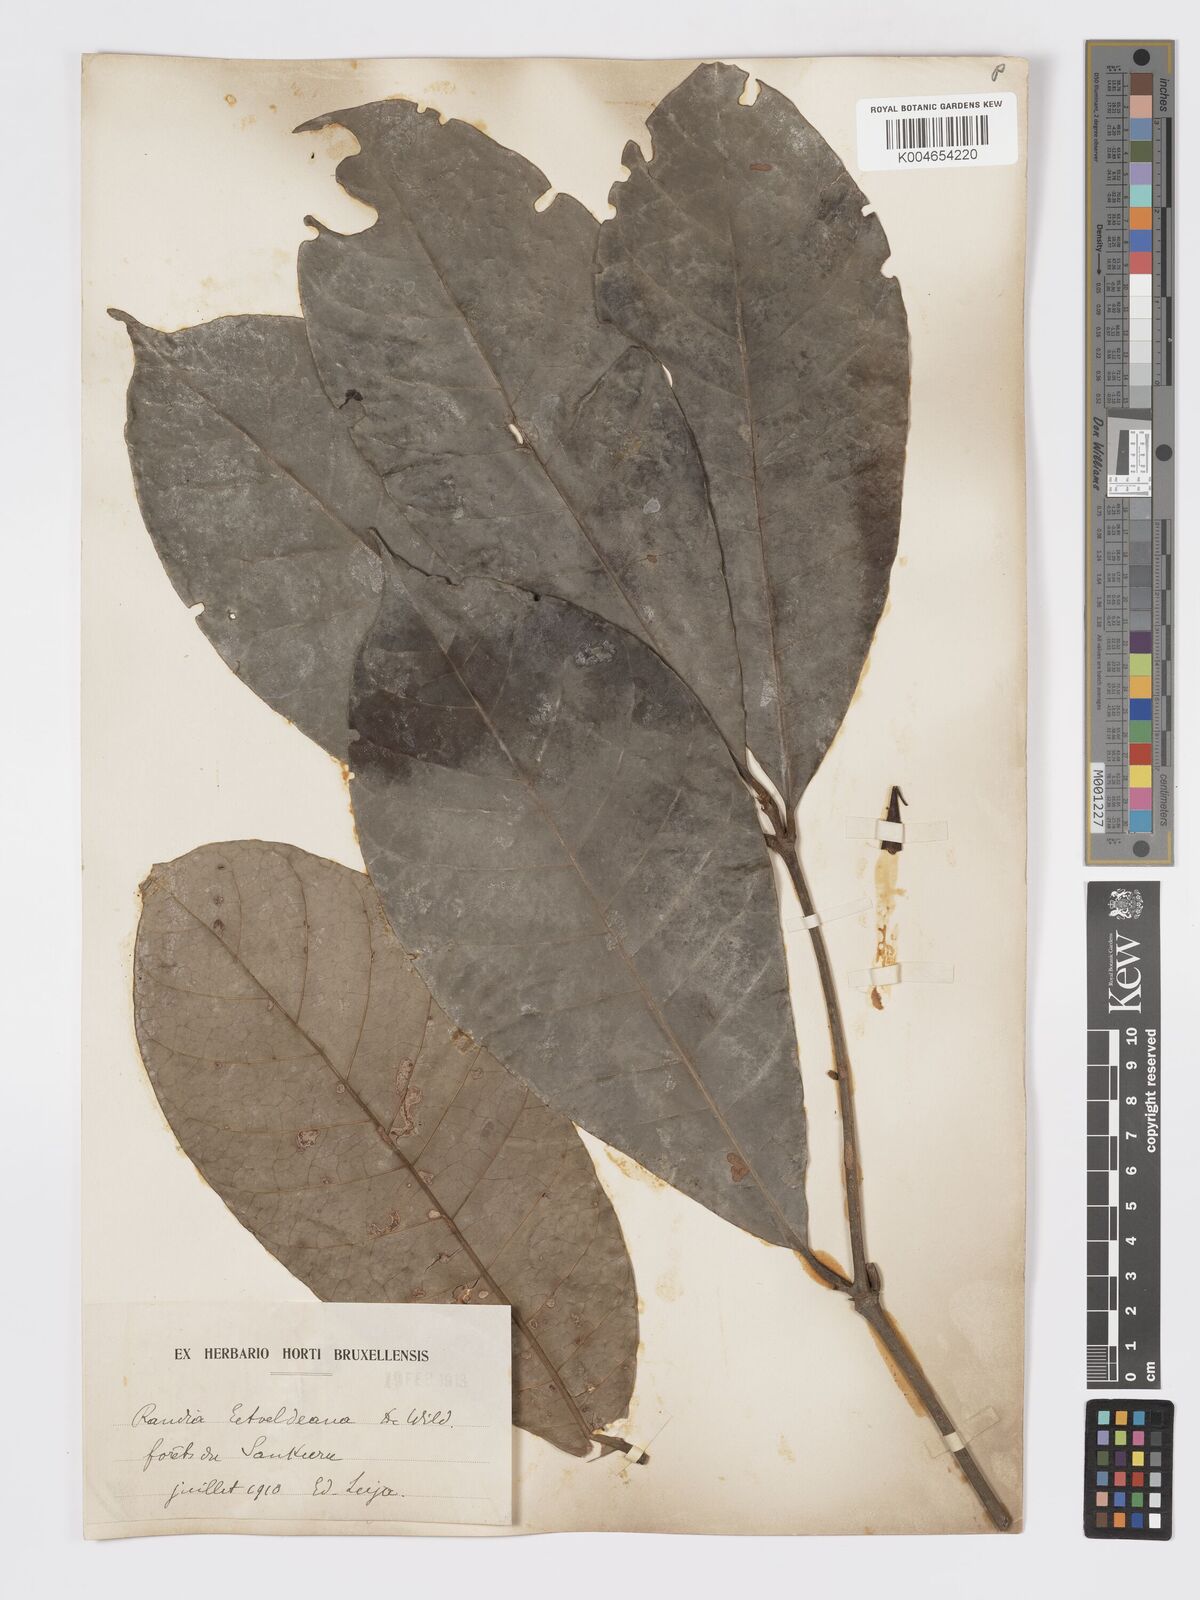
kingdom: Plantae
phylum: Tracheophyta
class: Magnoliopsida
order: Gentianales
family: Rubiaceae
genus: Rothmannia
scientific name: Rothmannia whitfieldii
